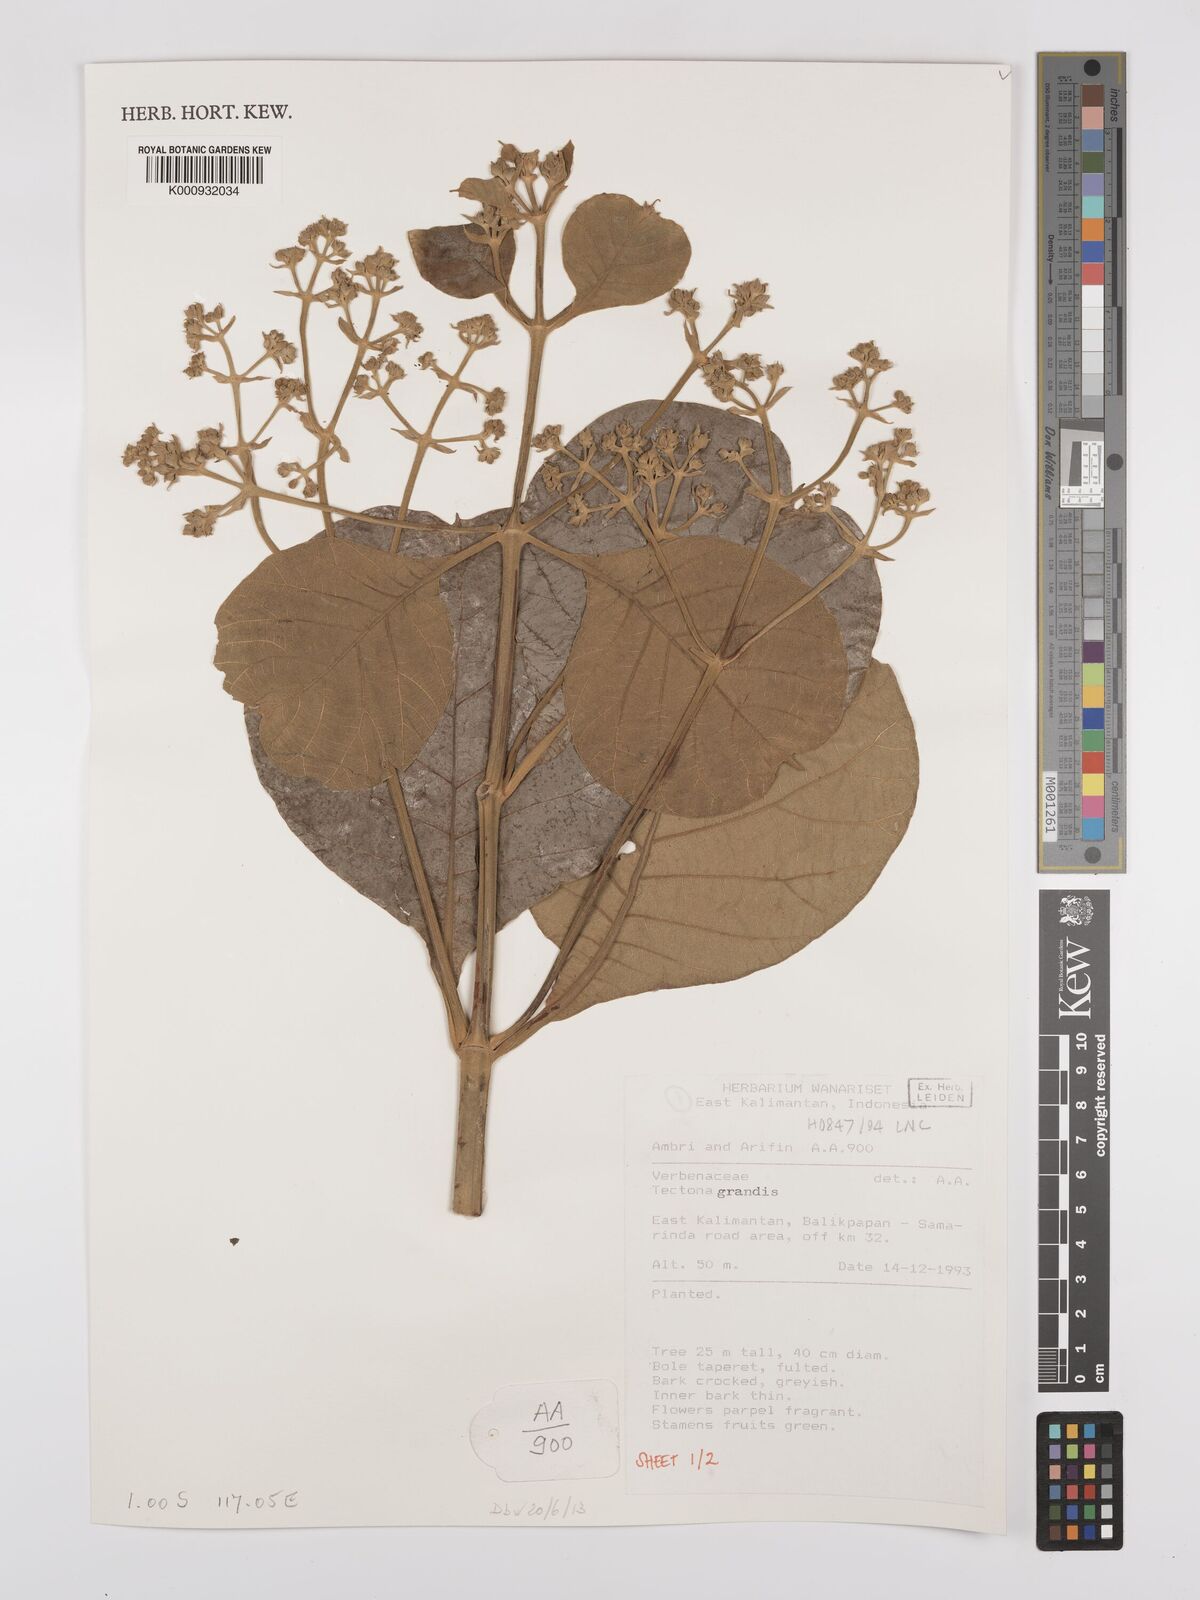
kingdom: Plantae
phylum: Tracheophyta
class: Magnoliopsida
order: Lamiales
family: Lamiaceae
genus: Tectona
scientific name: Tectona grandis
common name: Teak
